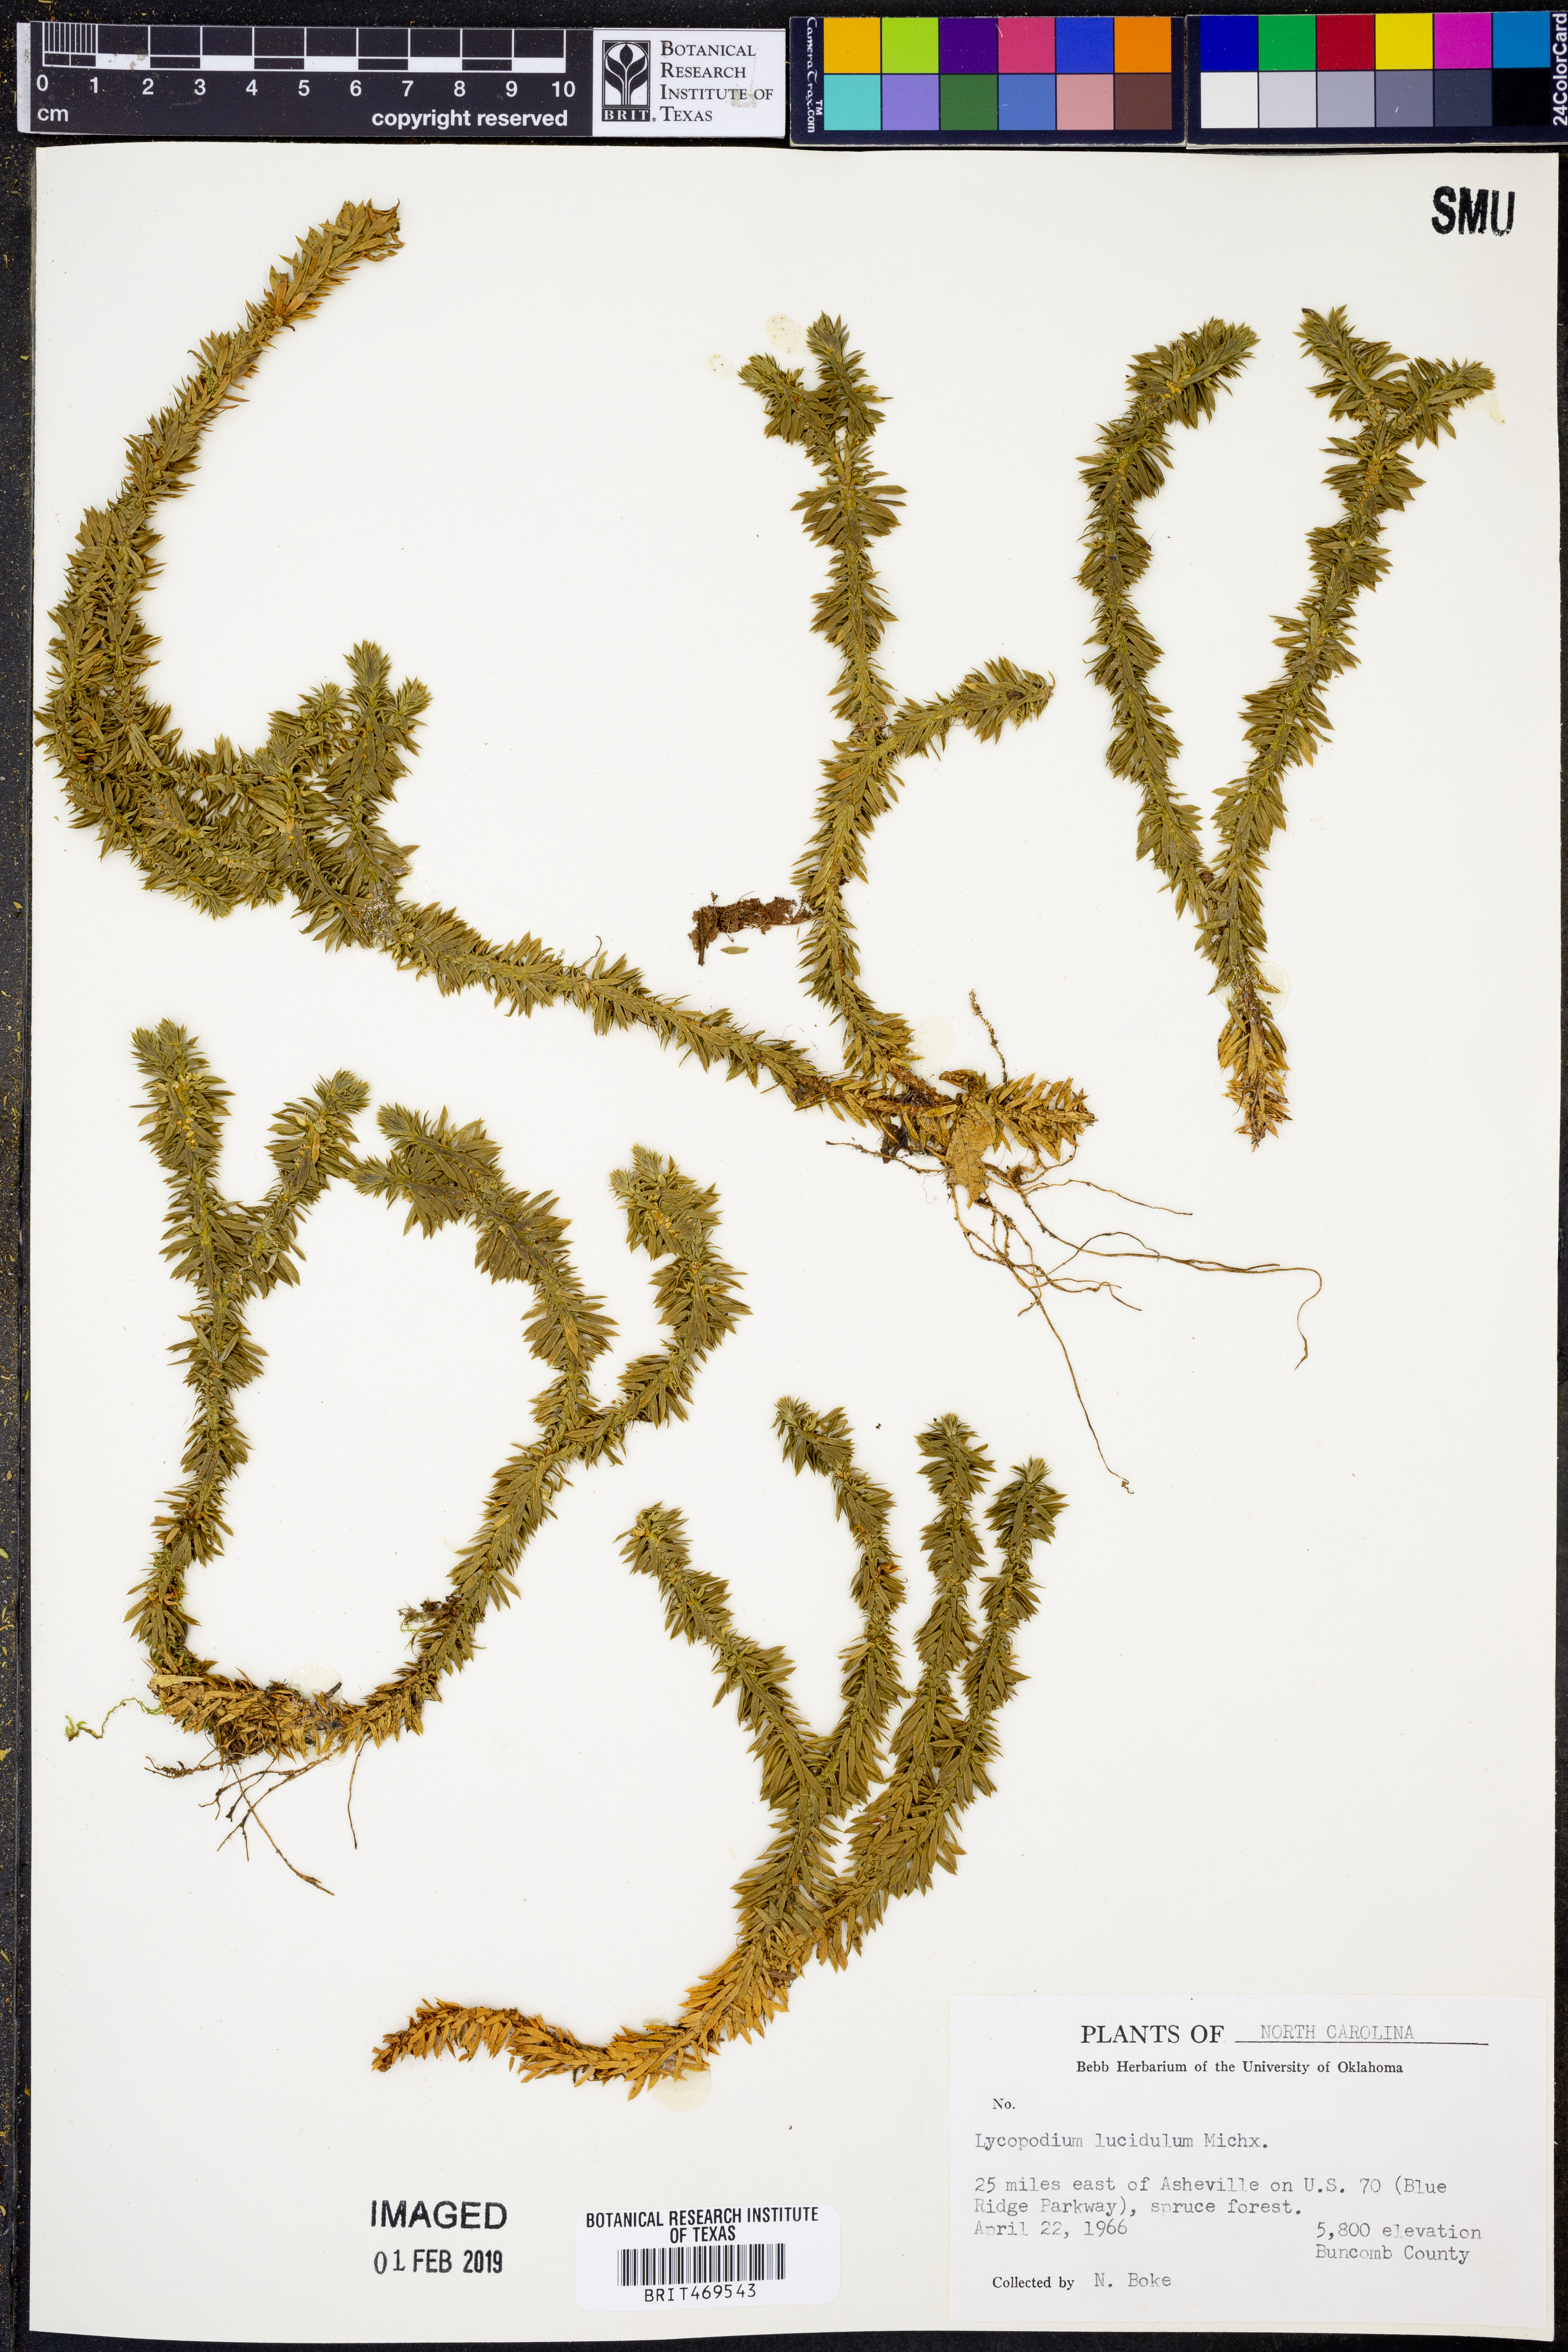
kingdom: Plantae
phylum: Tracheophyta
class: Lycopodiopsida
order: Lycopodiales
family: Lycopodiaceae
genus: Huperzia
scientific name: Huperzia lucidula
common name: Shining clubmoss
